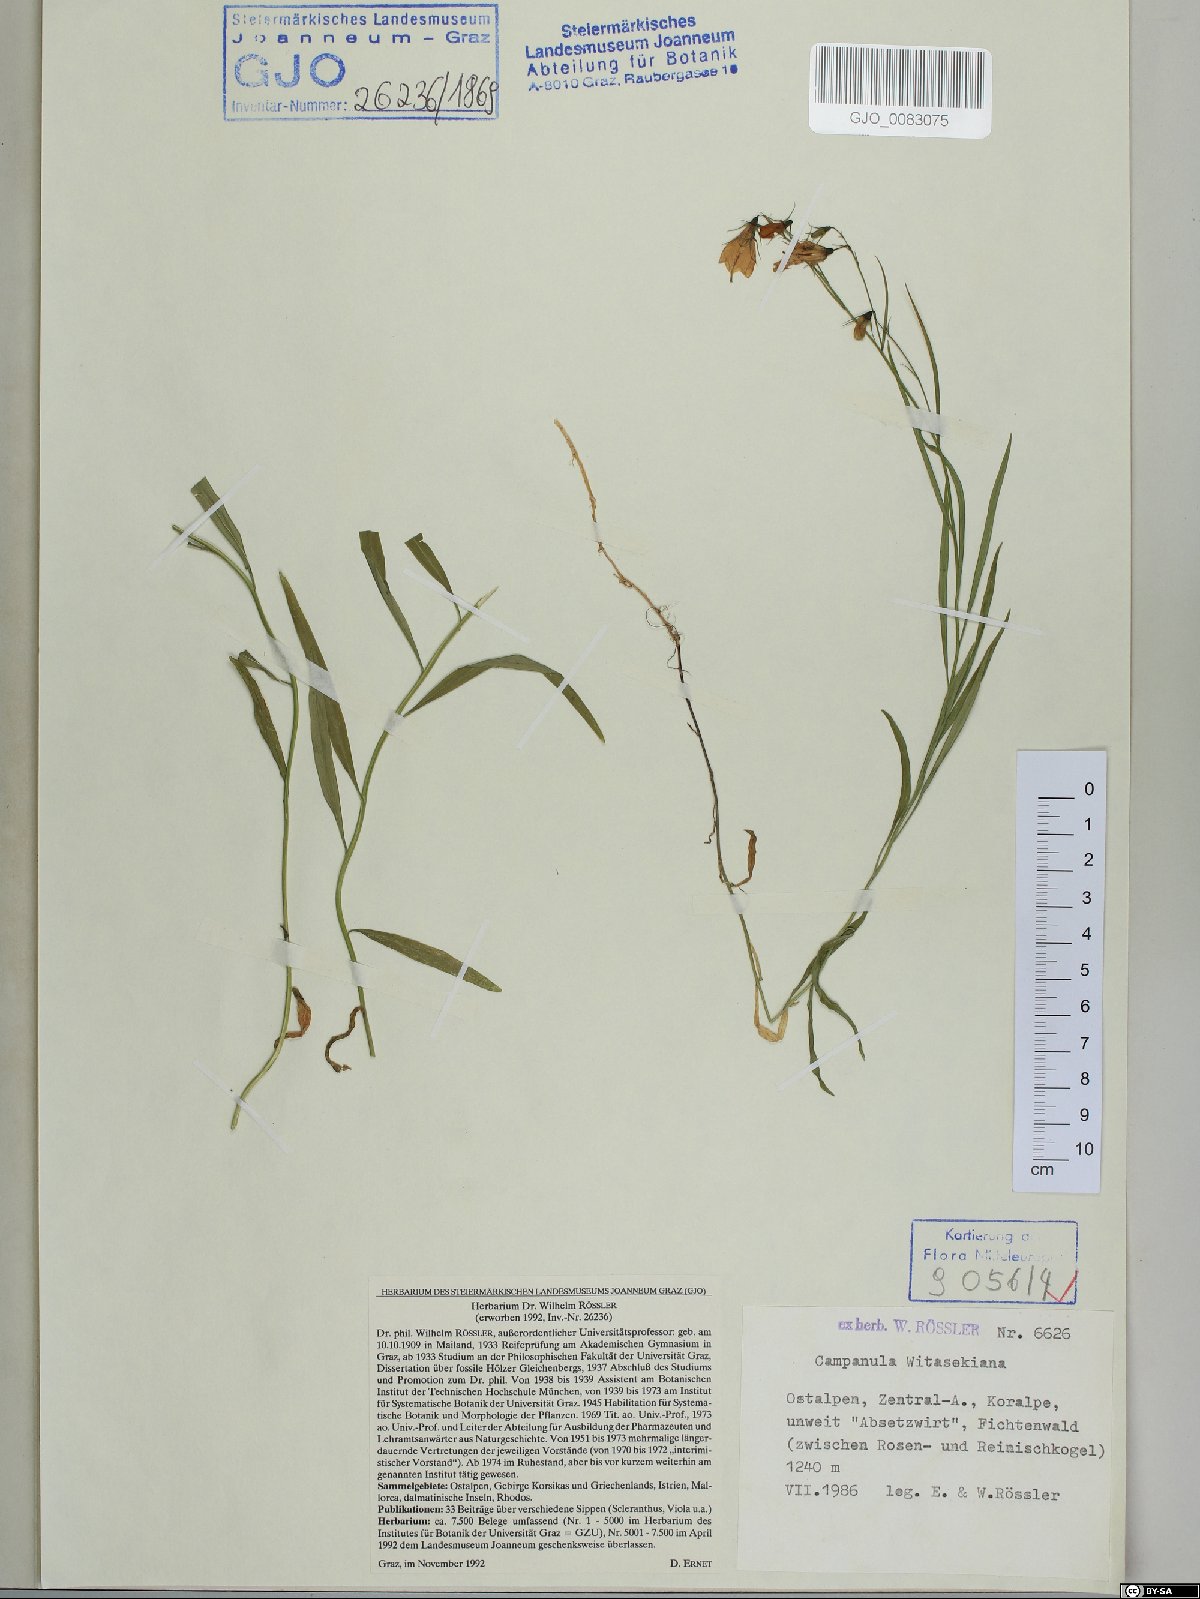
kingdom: Plantae
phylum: Tracheophyta
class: Magnoliopsida
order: Asterales
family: Campanulaceae
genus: Campanula
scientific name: Campanula witasekiana
